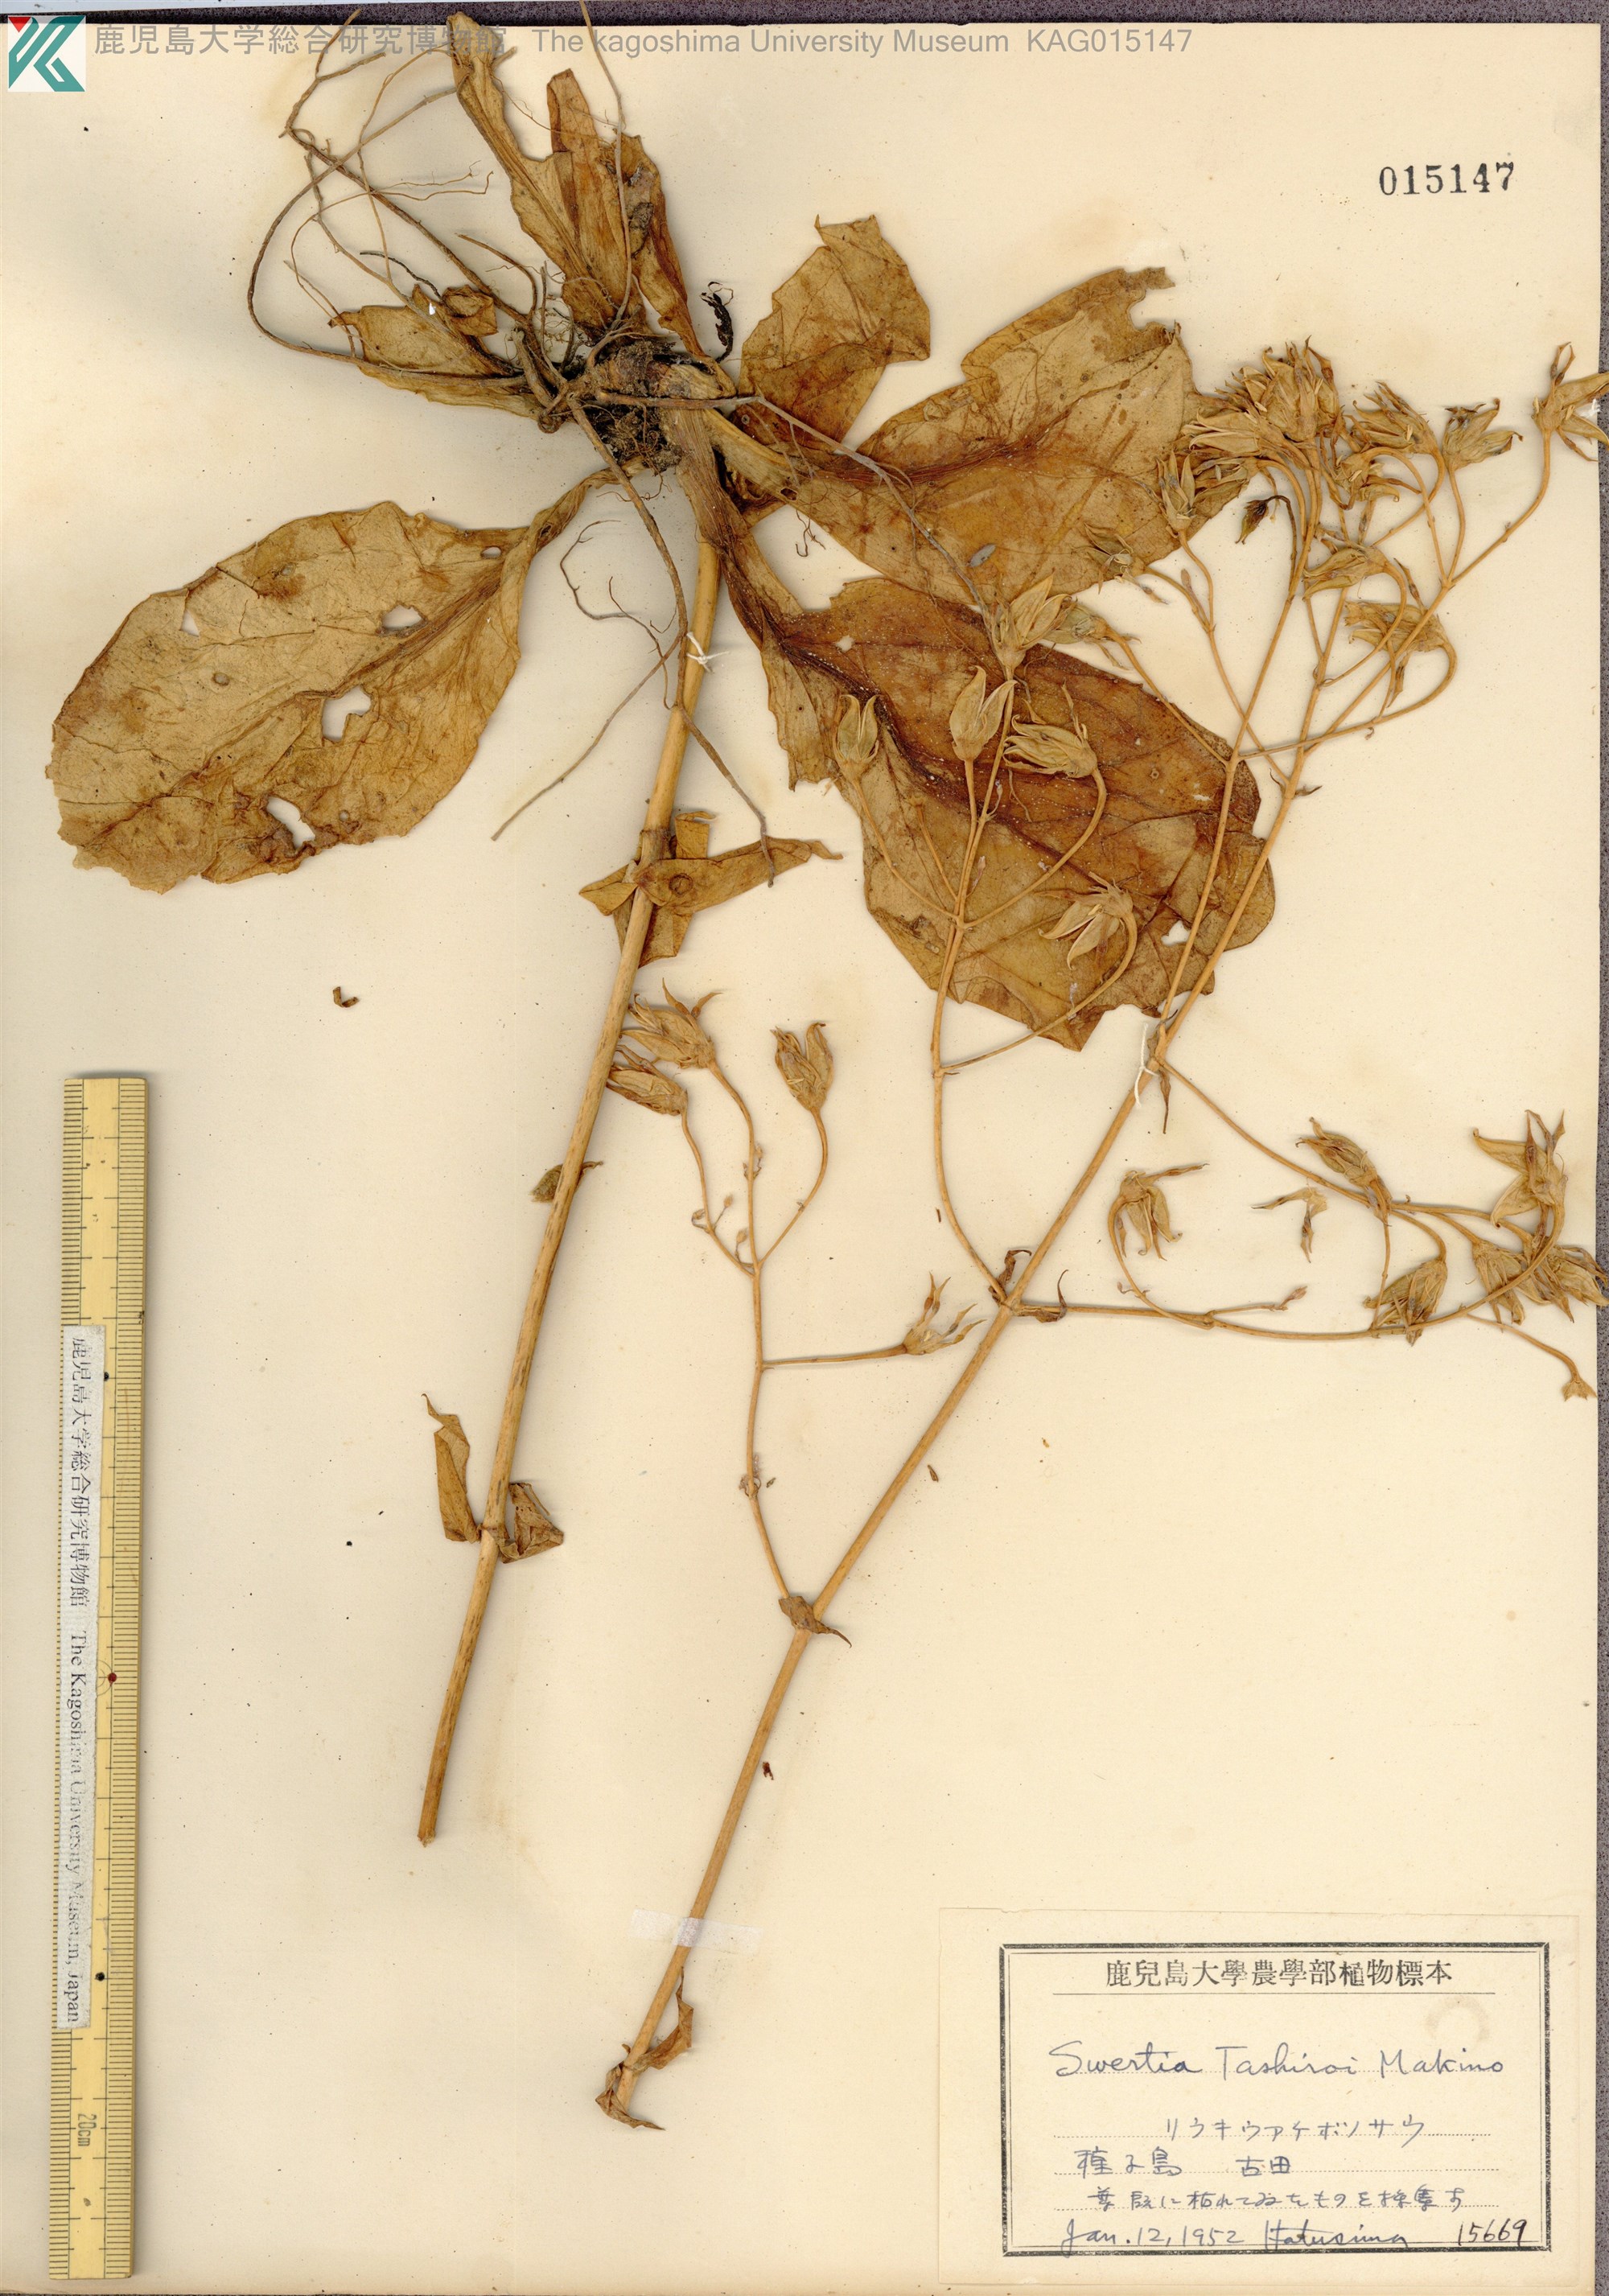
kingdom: Plantae
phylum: Tracheophyta
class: Magnoliopsida
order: Gentianales
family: Gentianaceae
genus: Swertia
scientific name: Swertia tashiroi
